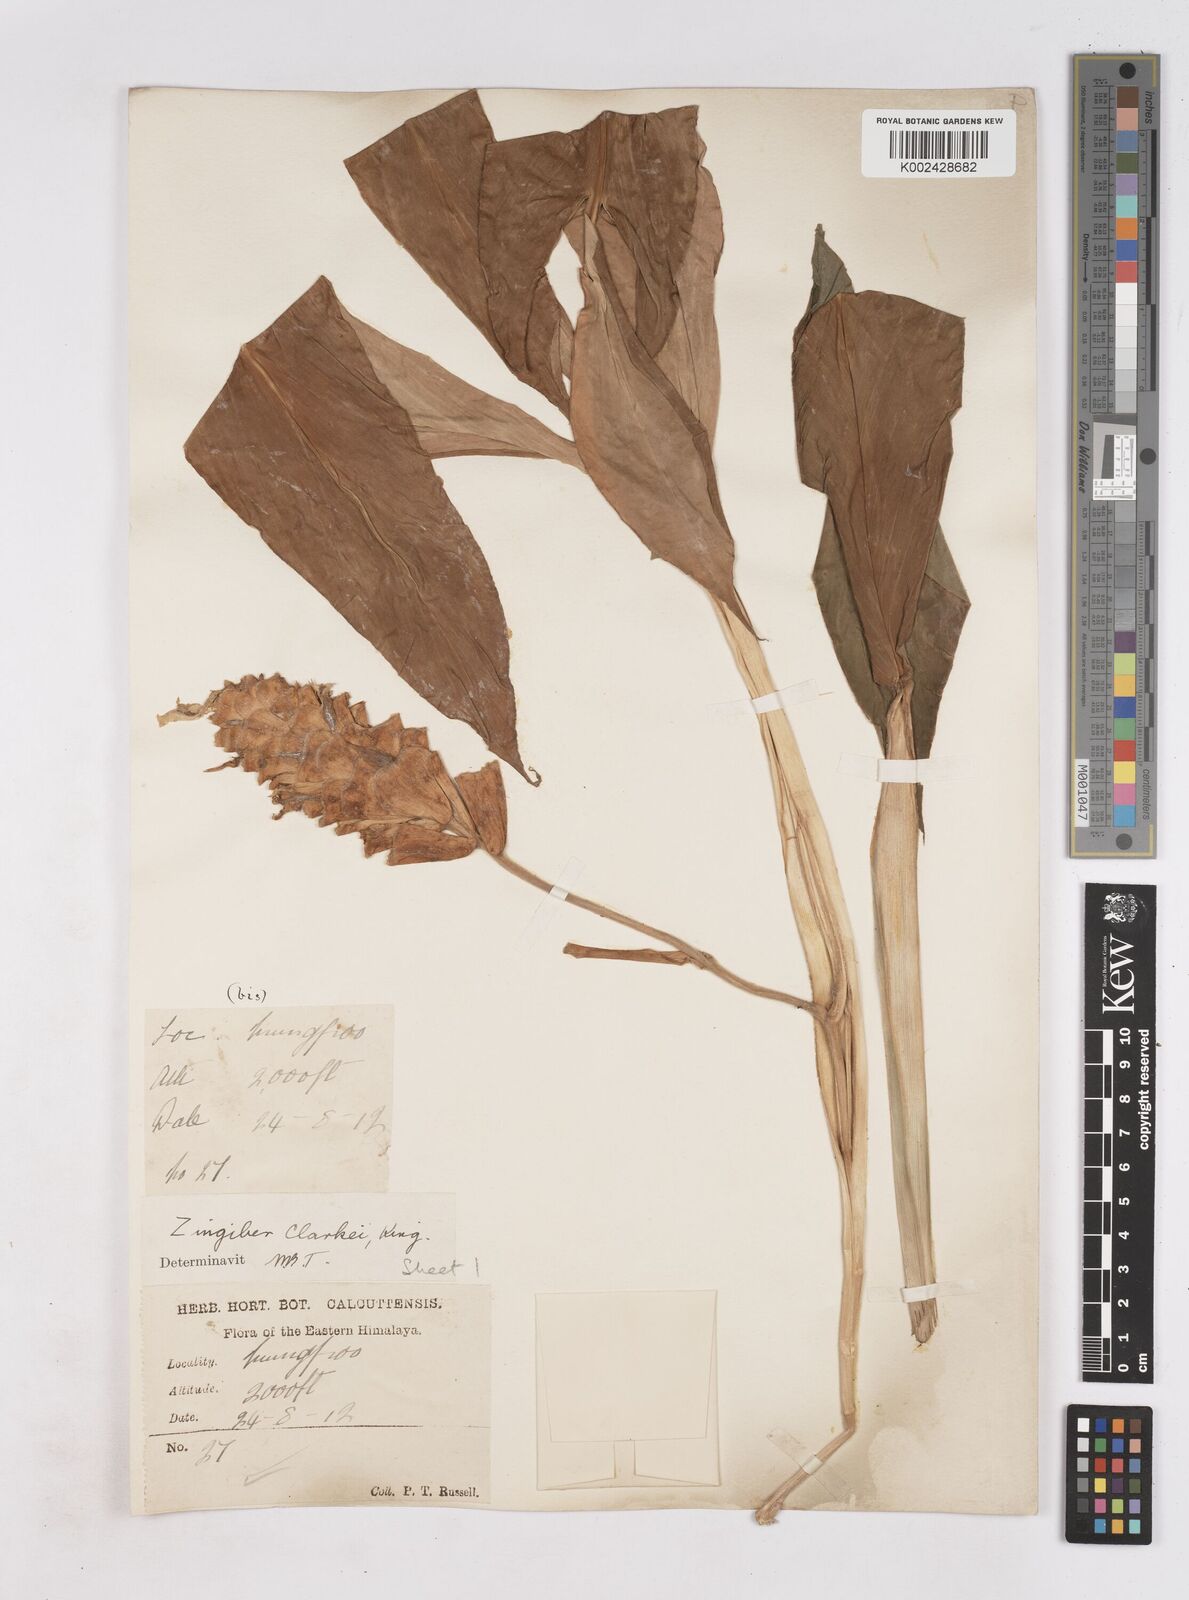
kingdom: Plantae
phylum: Tracheophyta
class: Liliopsida
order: Zingiberales
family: Zingiberaceae
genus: Zingiber
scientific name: Zingiber clarkei
